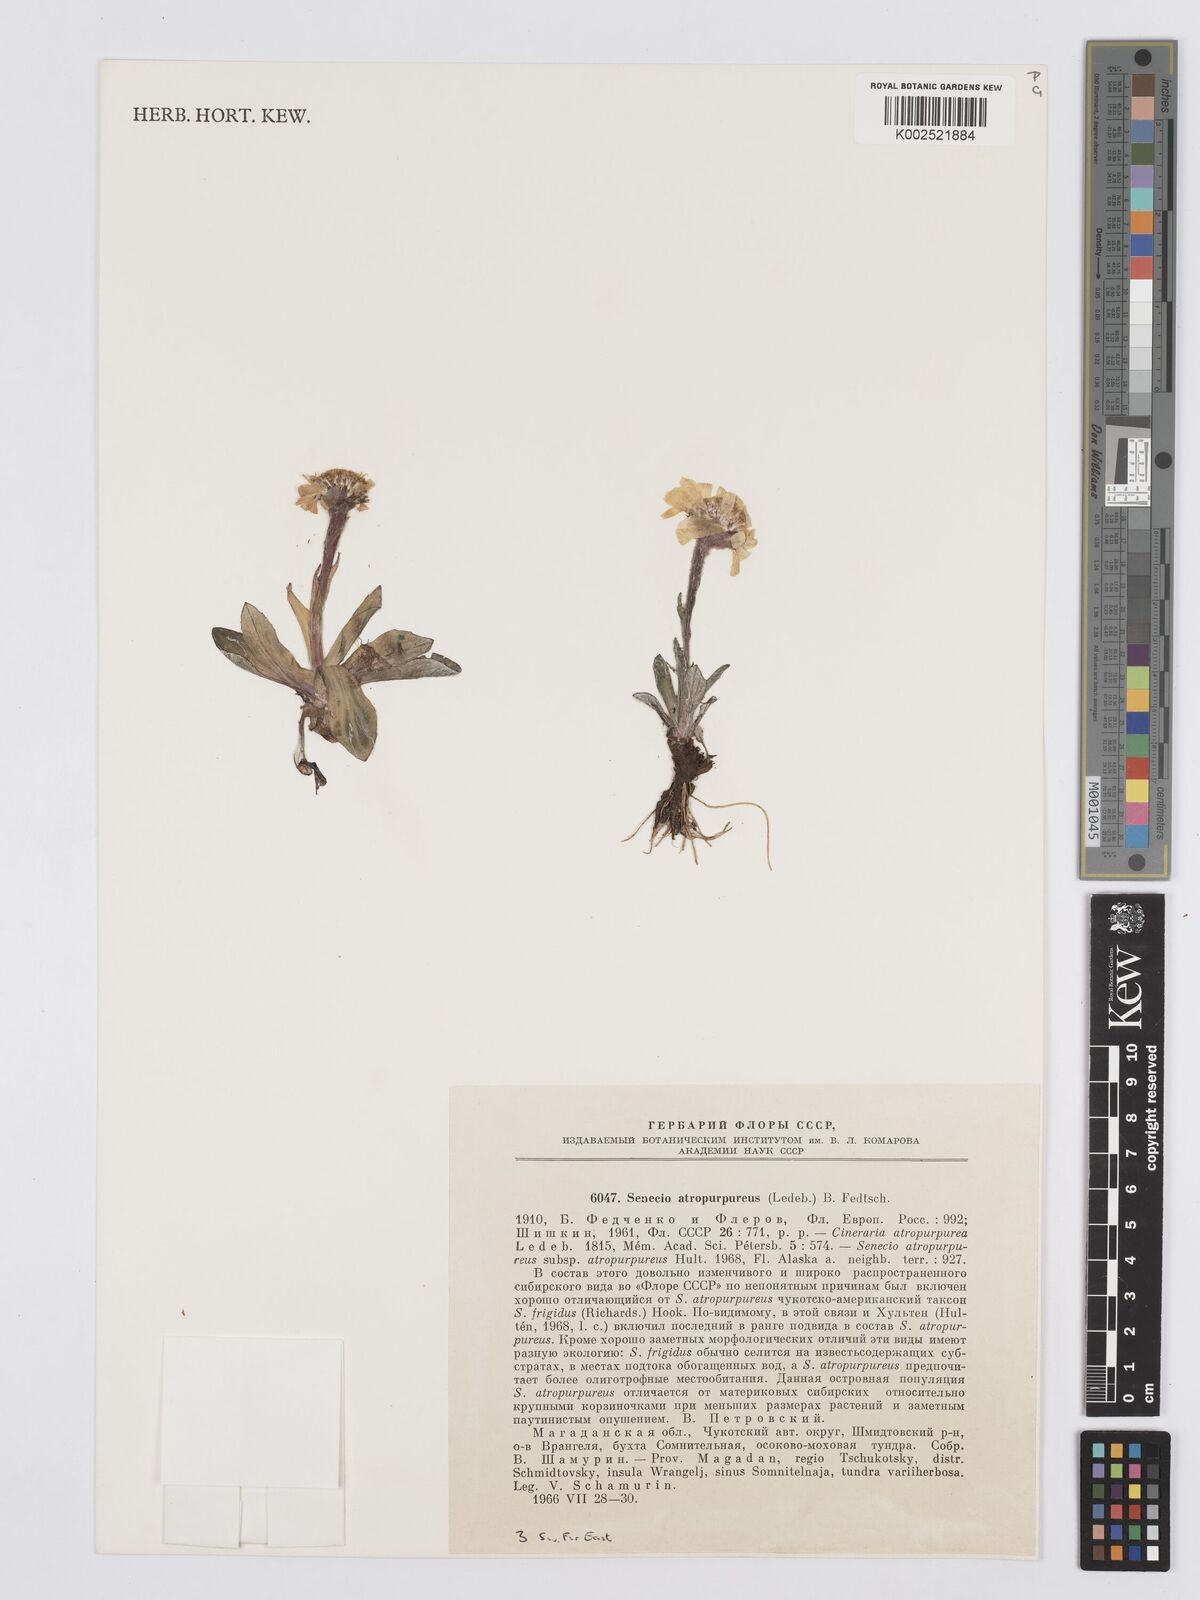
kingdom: Plantae
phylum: Tracheophyta
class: Magnoliopsida
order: Asterales
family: Asteraceae
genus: Tephroseris
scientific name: Tephroseris integrifolia
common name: Field fleawort
